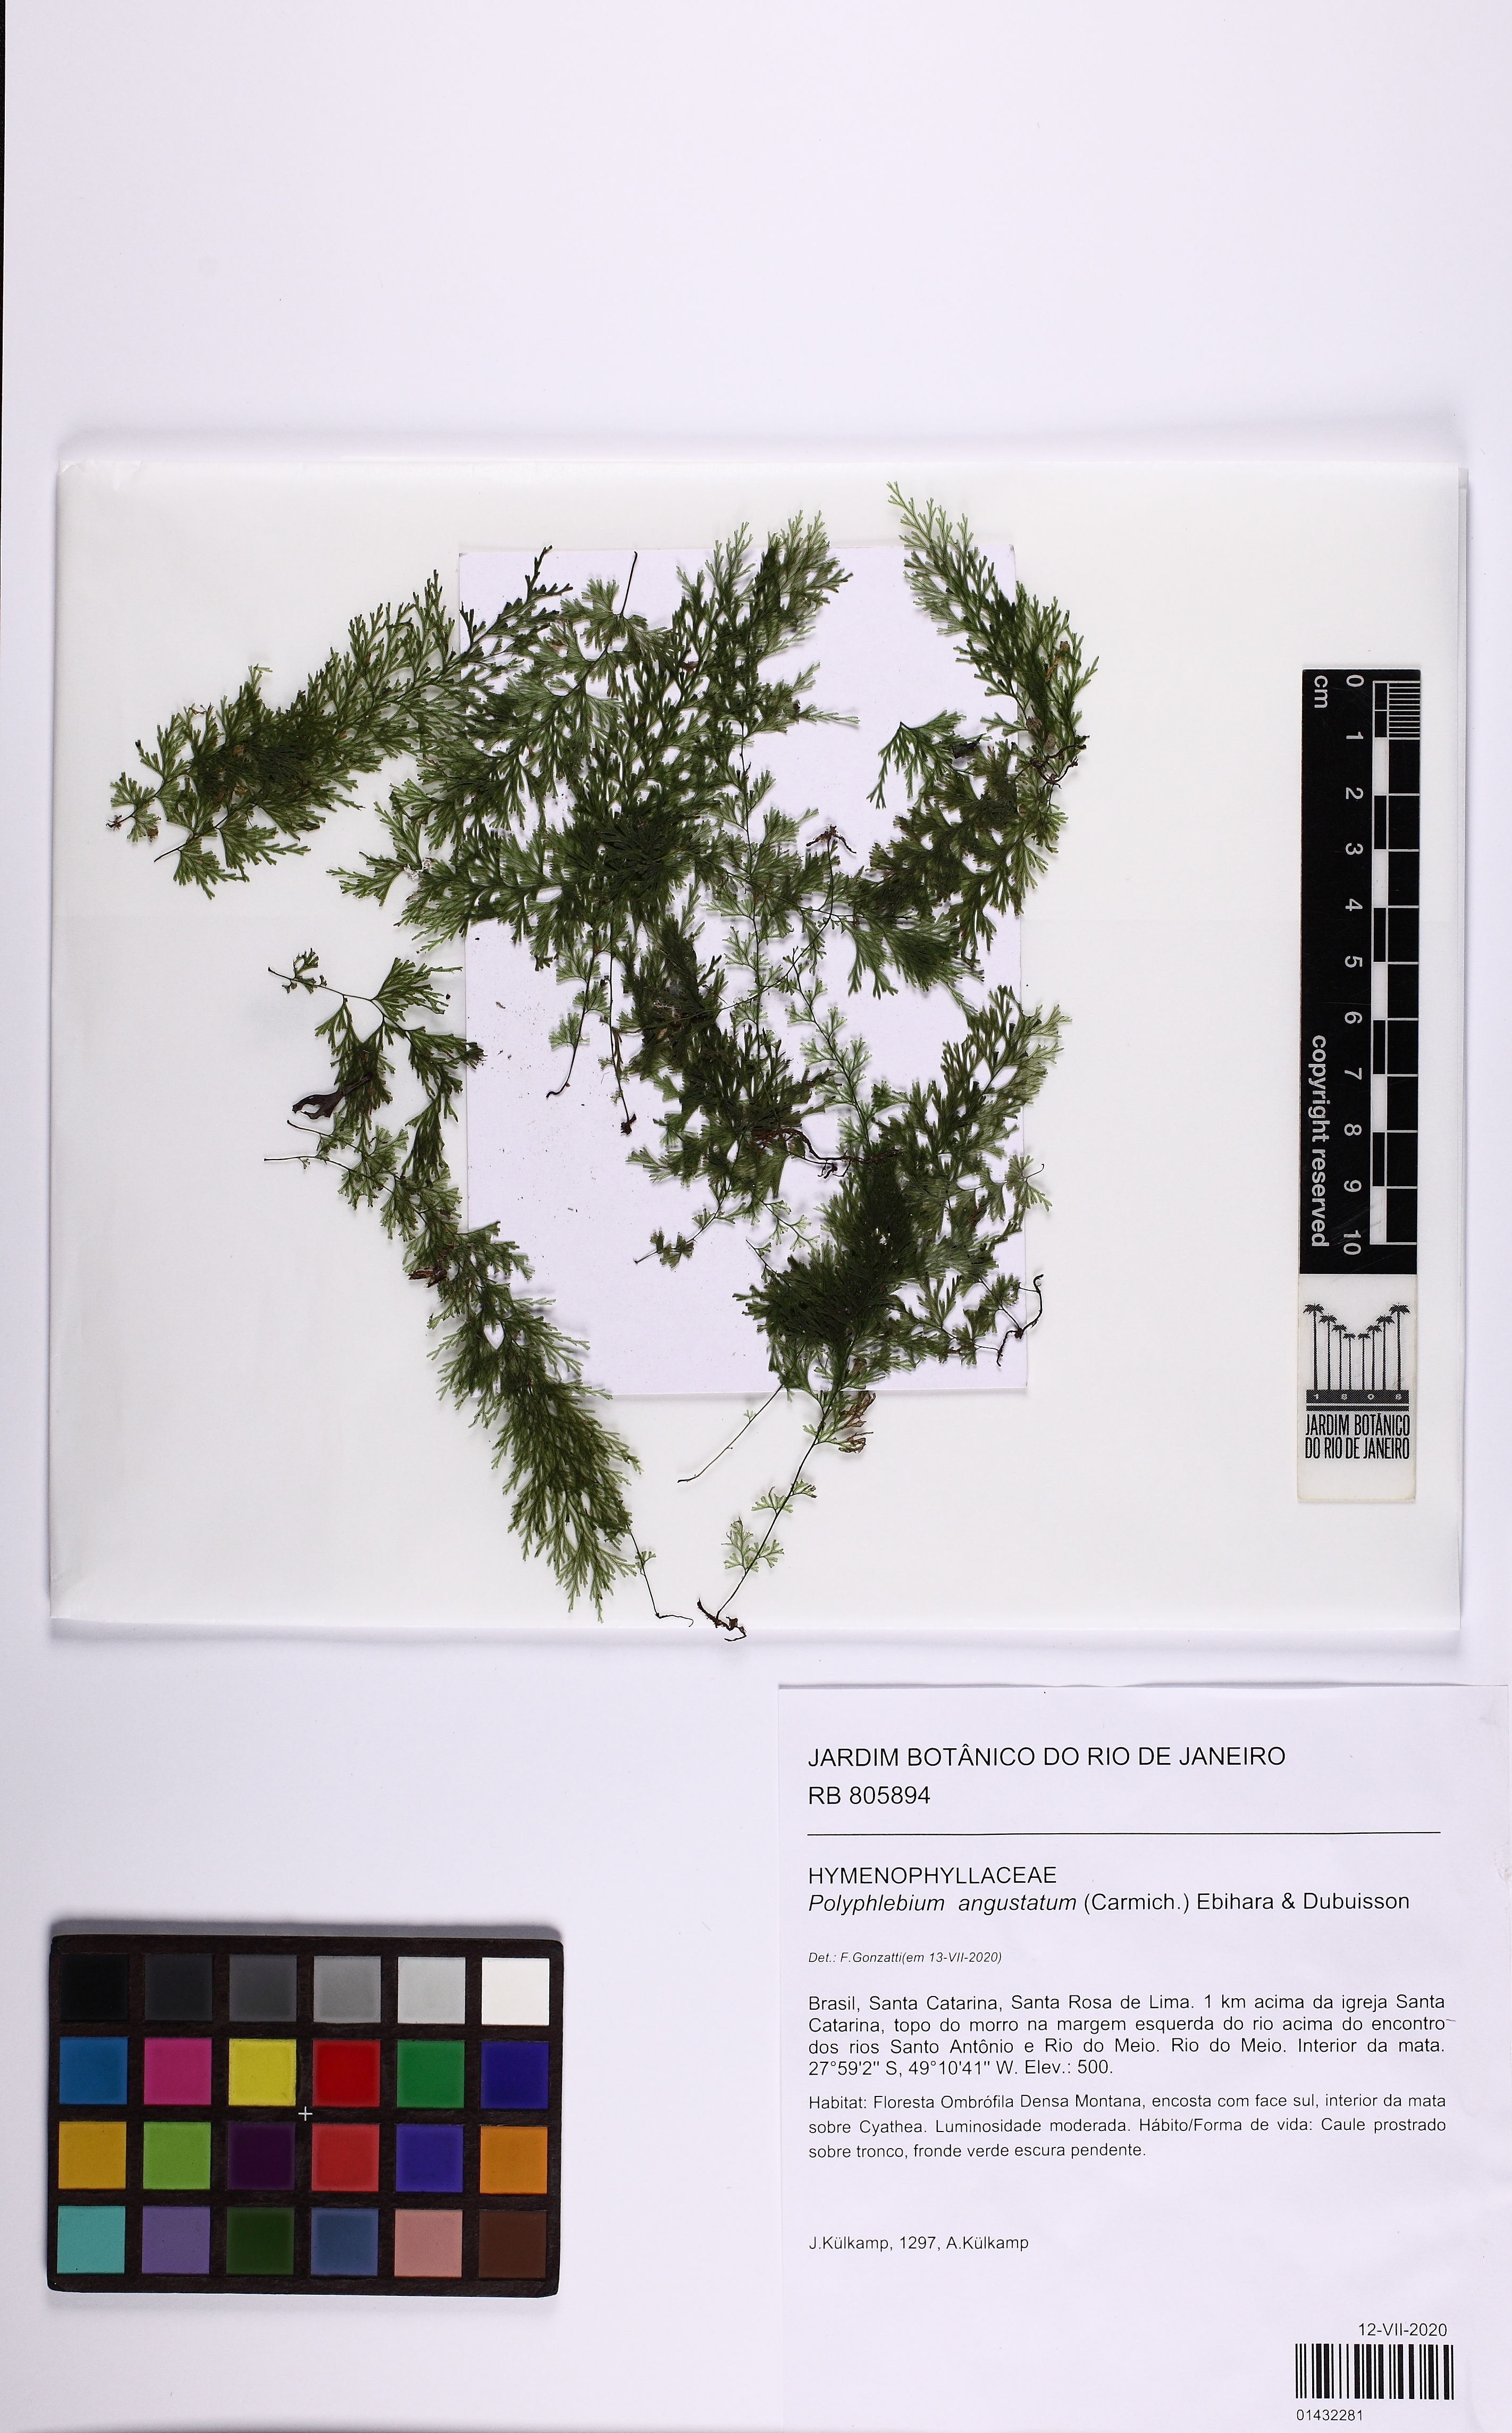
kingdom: Plantae
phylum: Tracheophyta
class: Polypodiopsida
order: Hymenophyllales
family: Hymenophyllaceae
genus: Polyphlebium
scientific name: Polyphlebium angustatum
